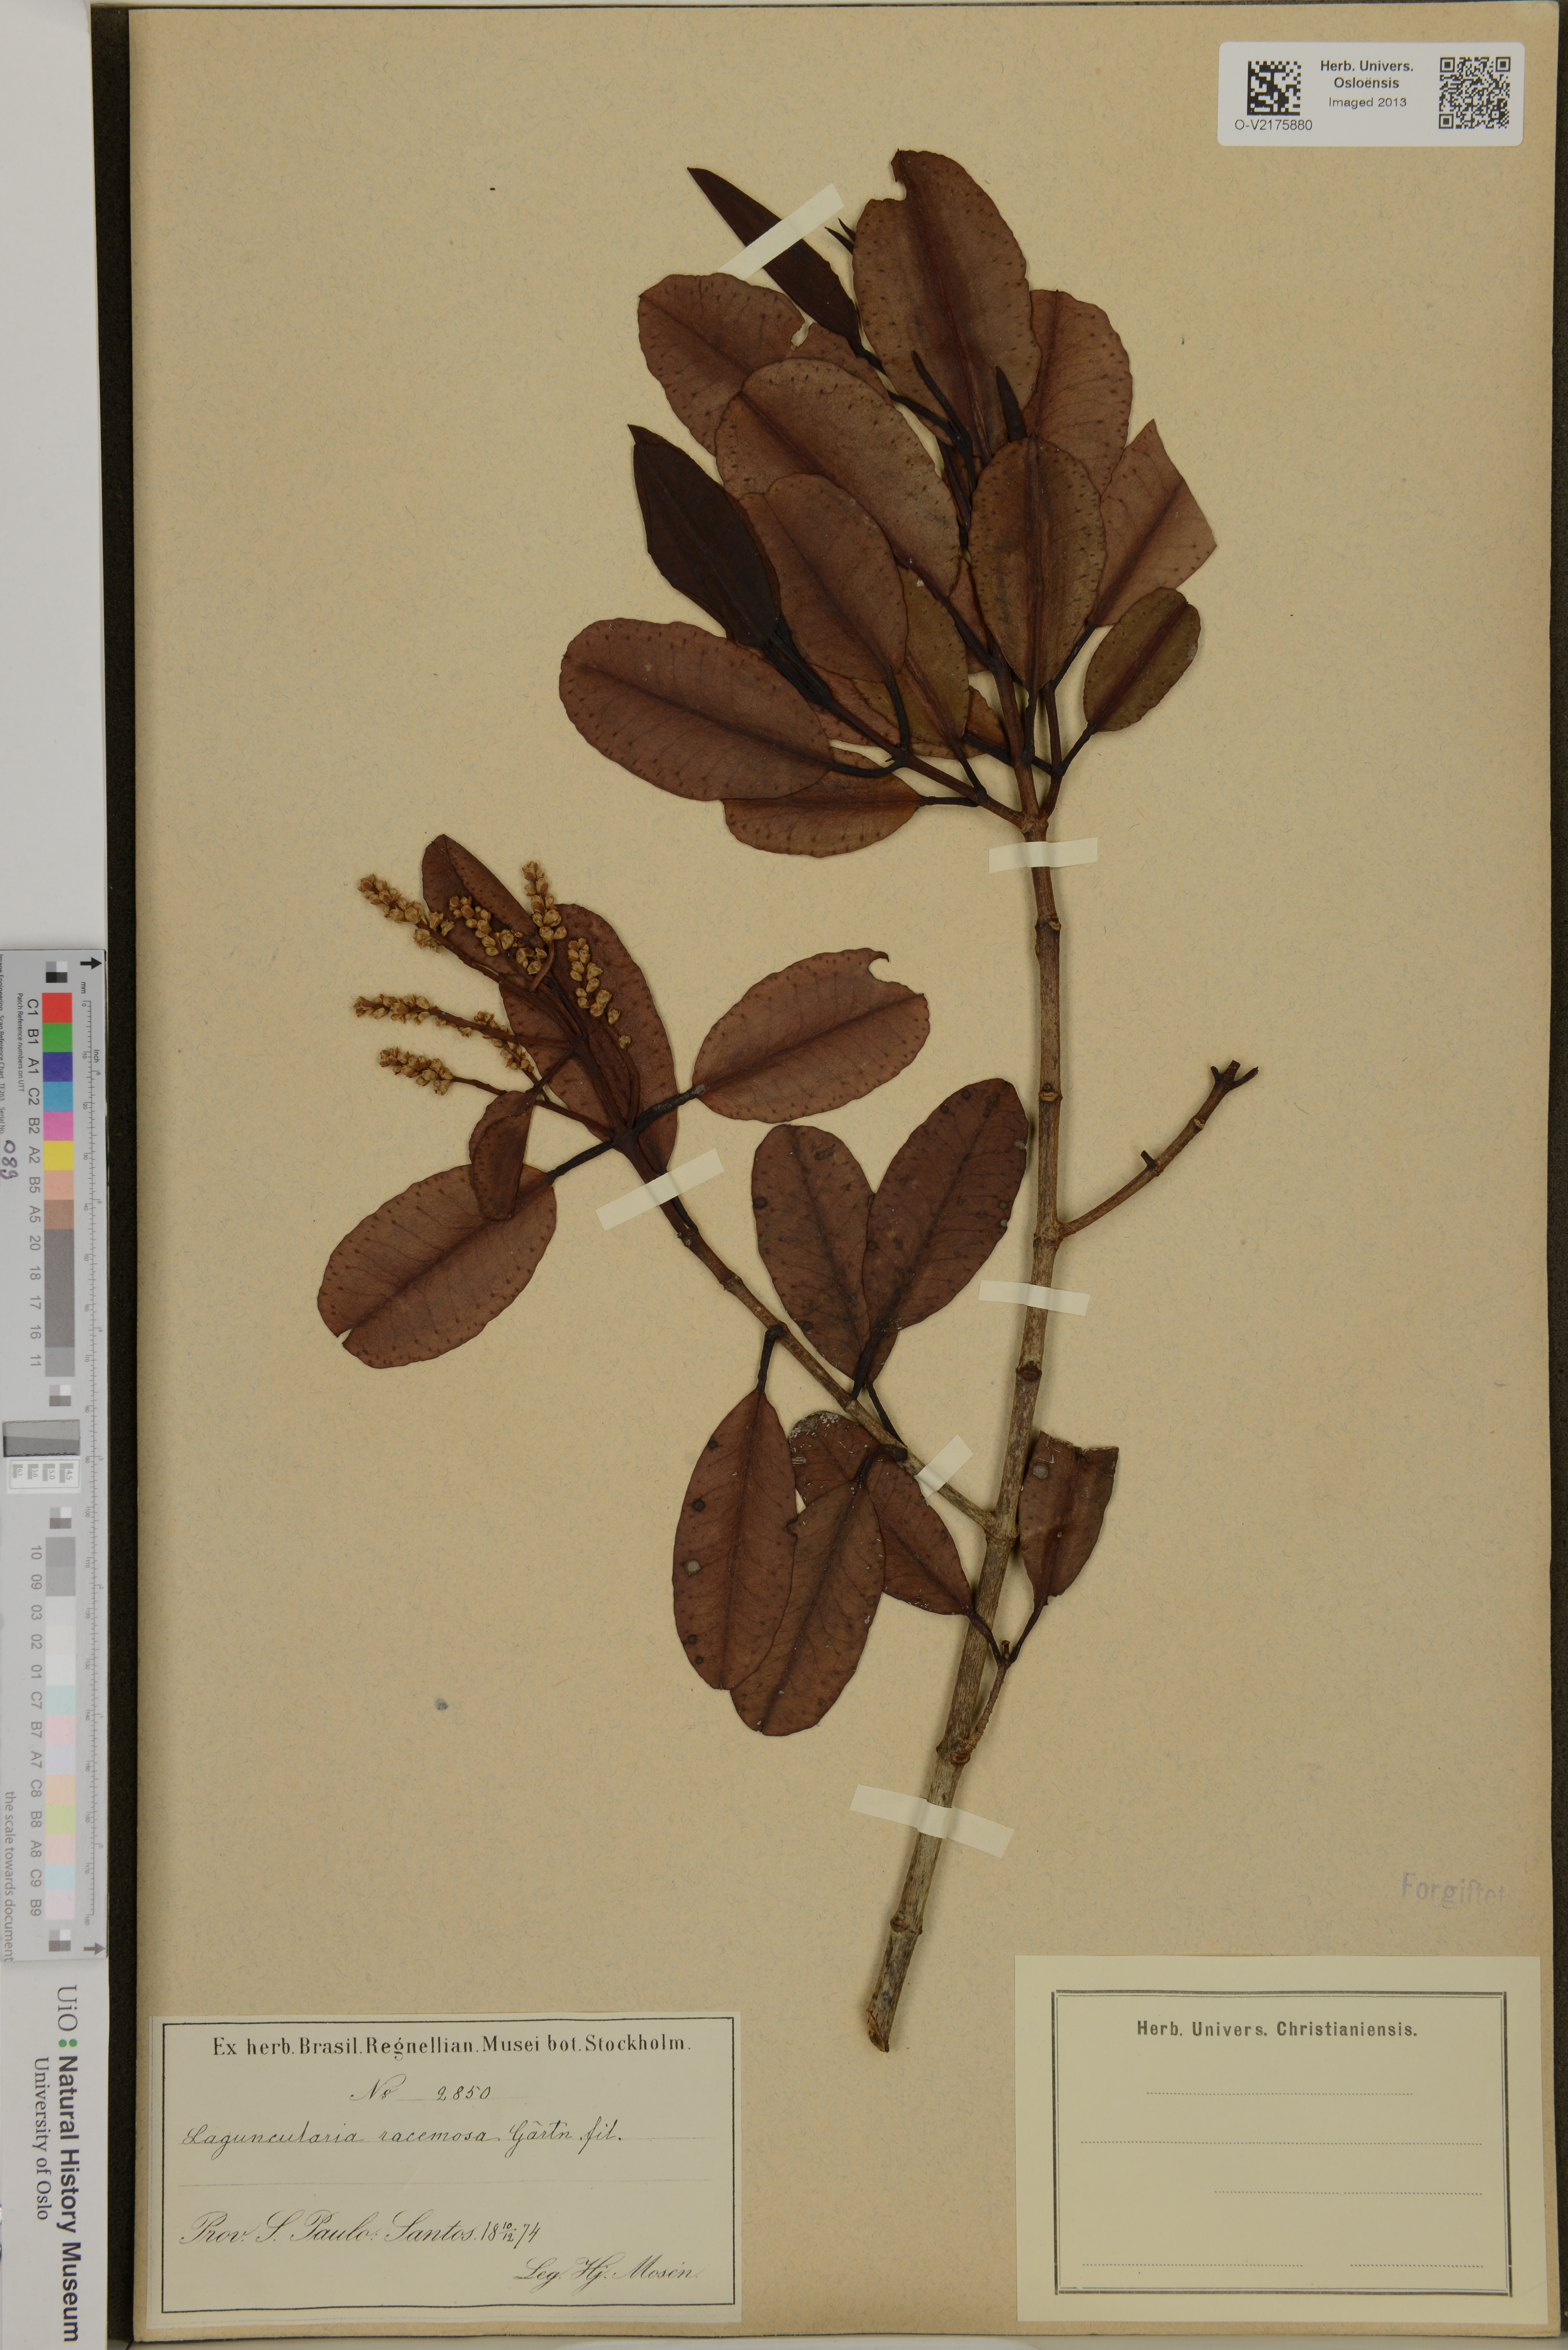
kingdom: Plantae
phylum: Tracheophyta
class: Magnoliopsida
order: Myrtales
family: Combretaceae
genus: Laguncularia
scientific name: Laguncularia racemosa
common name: White mangrove
